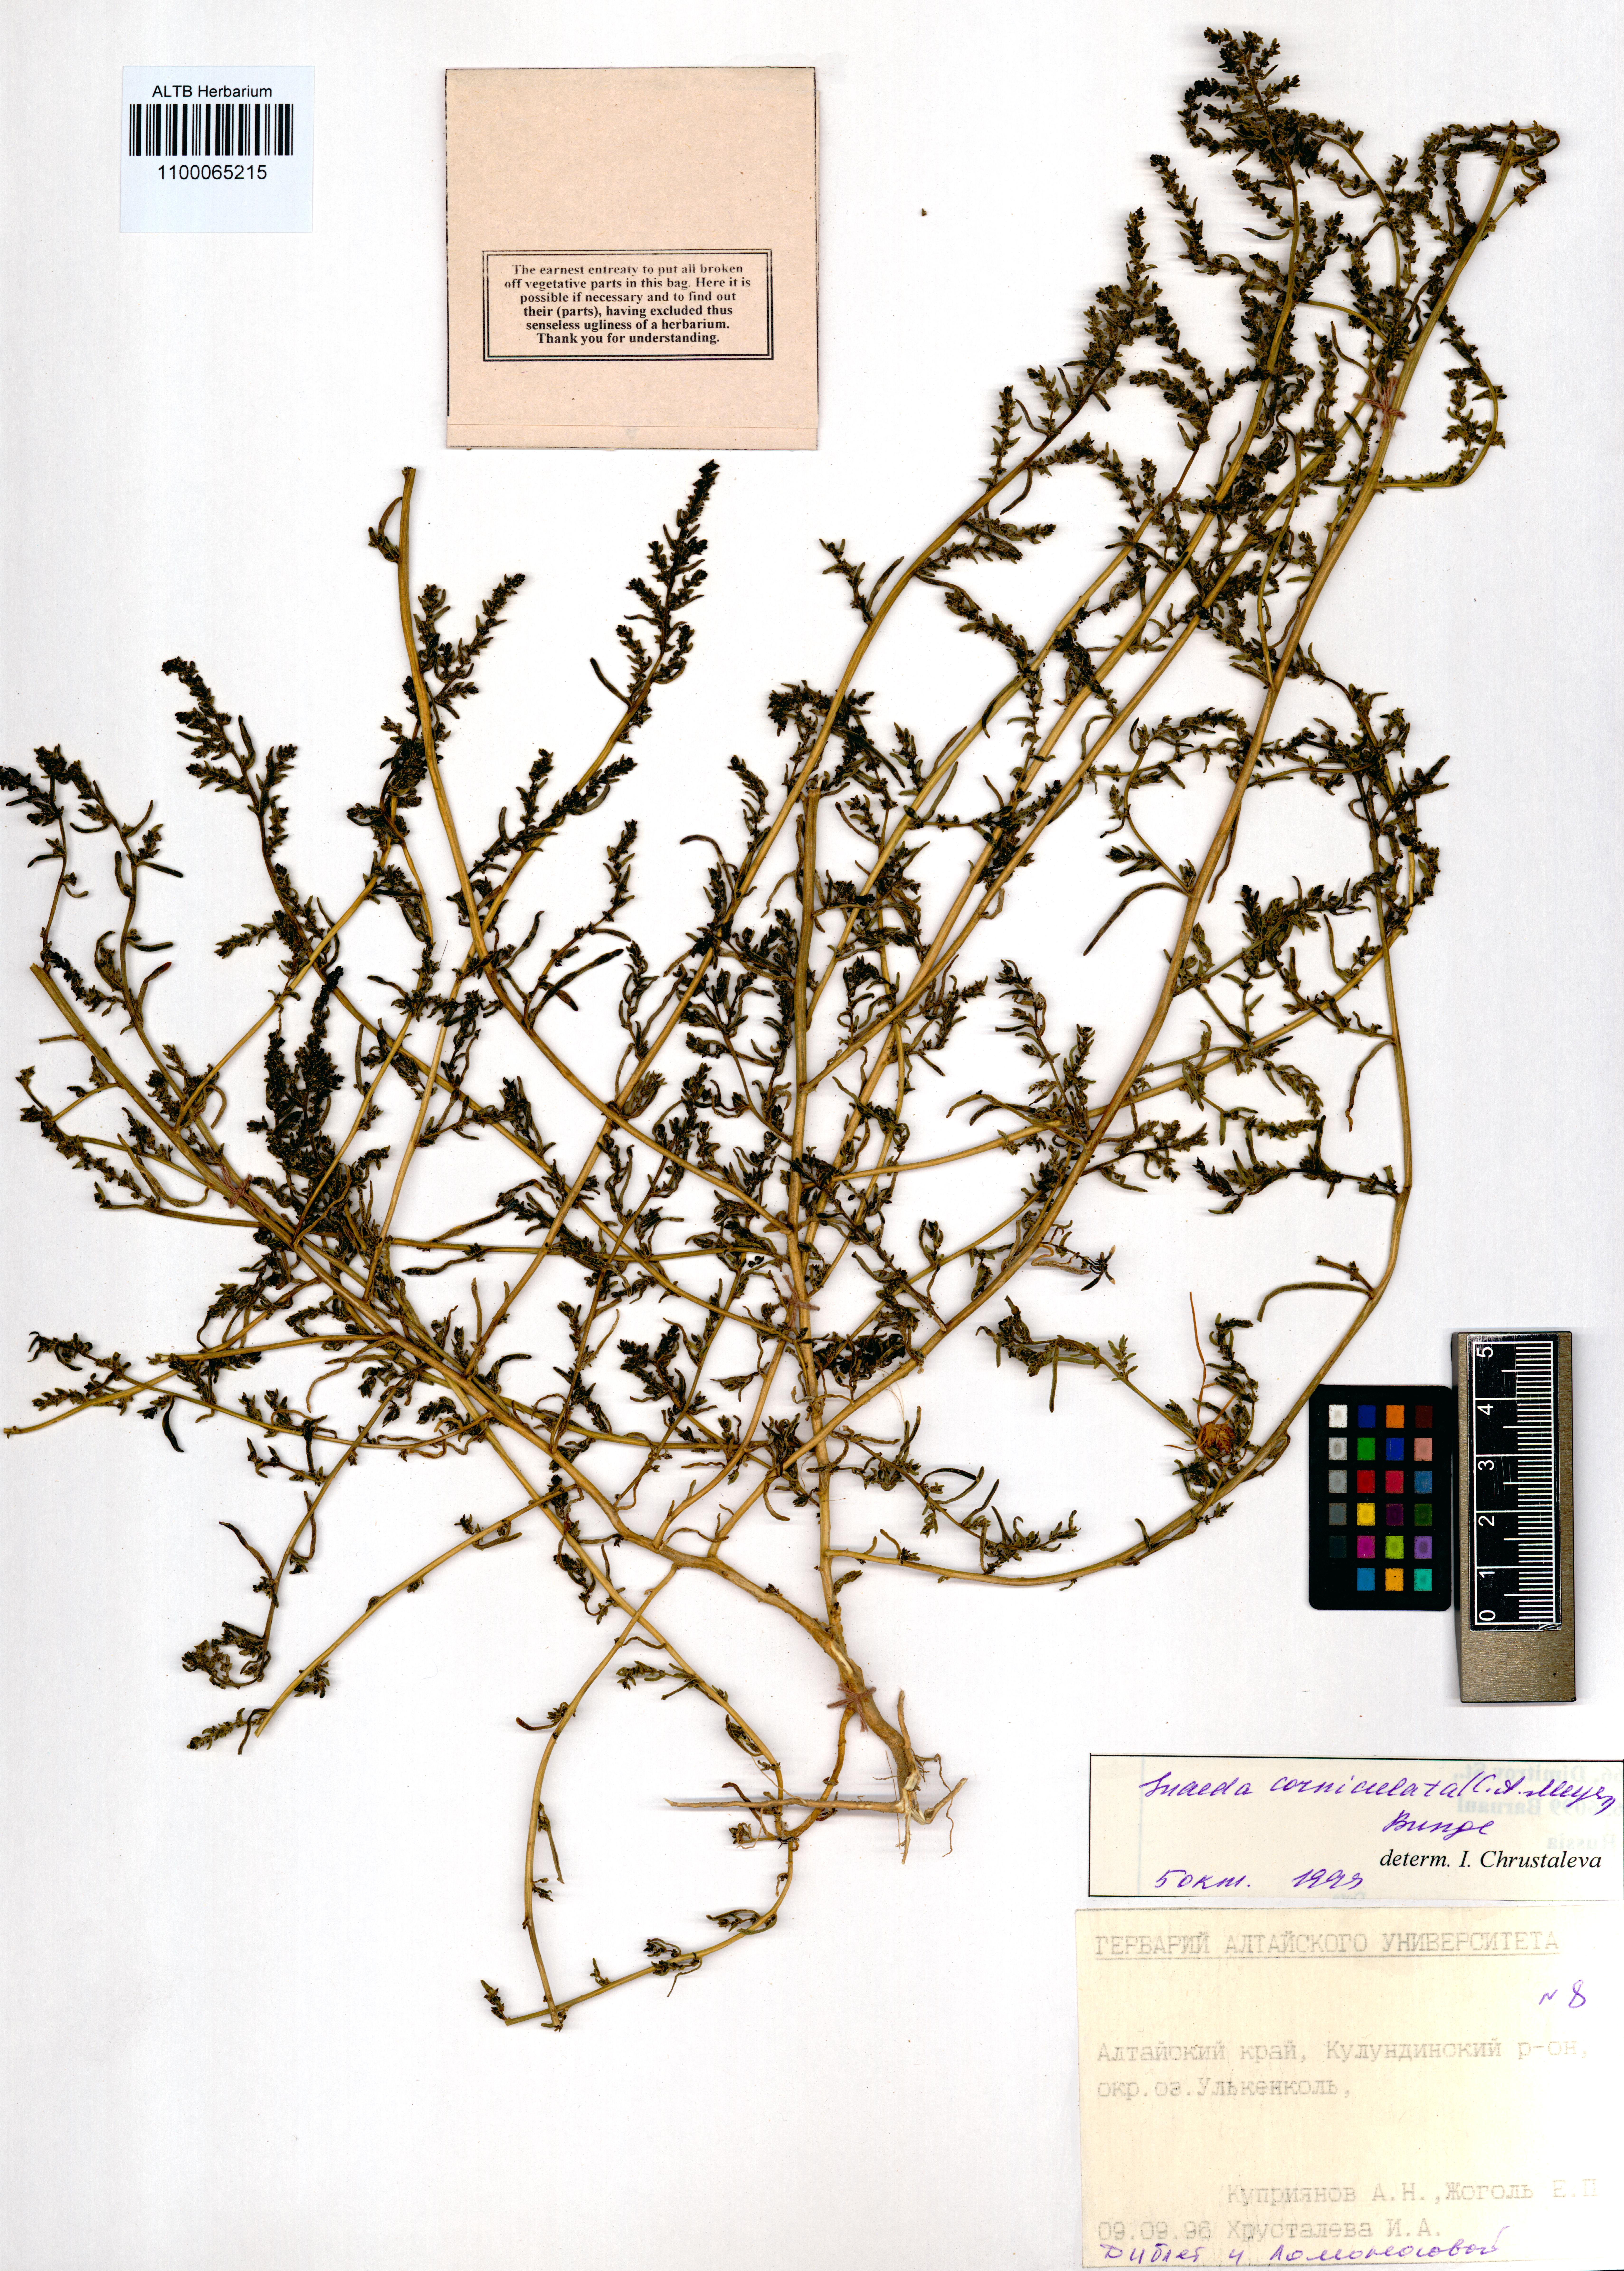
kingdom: Plantae
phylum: Tracheophyta
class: Magnoliopsida
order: Caryophyllales
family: Amaranthaceae
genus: Suaeda
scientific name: Suaeda corniculata
